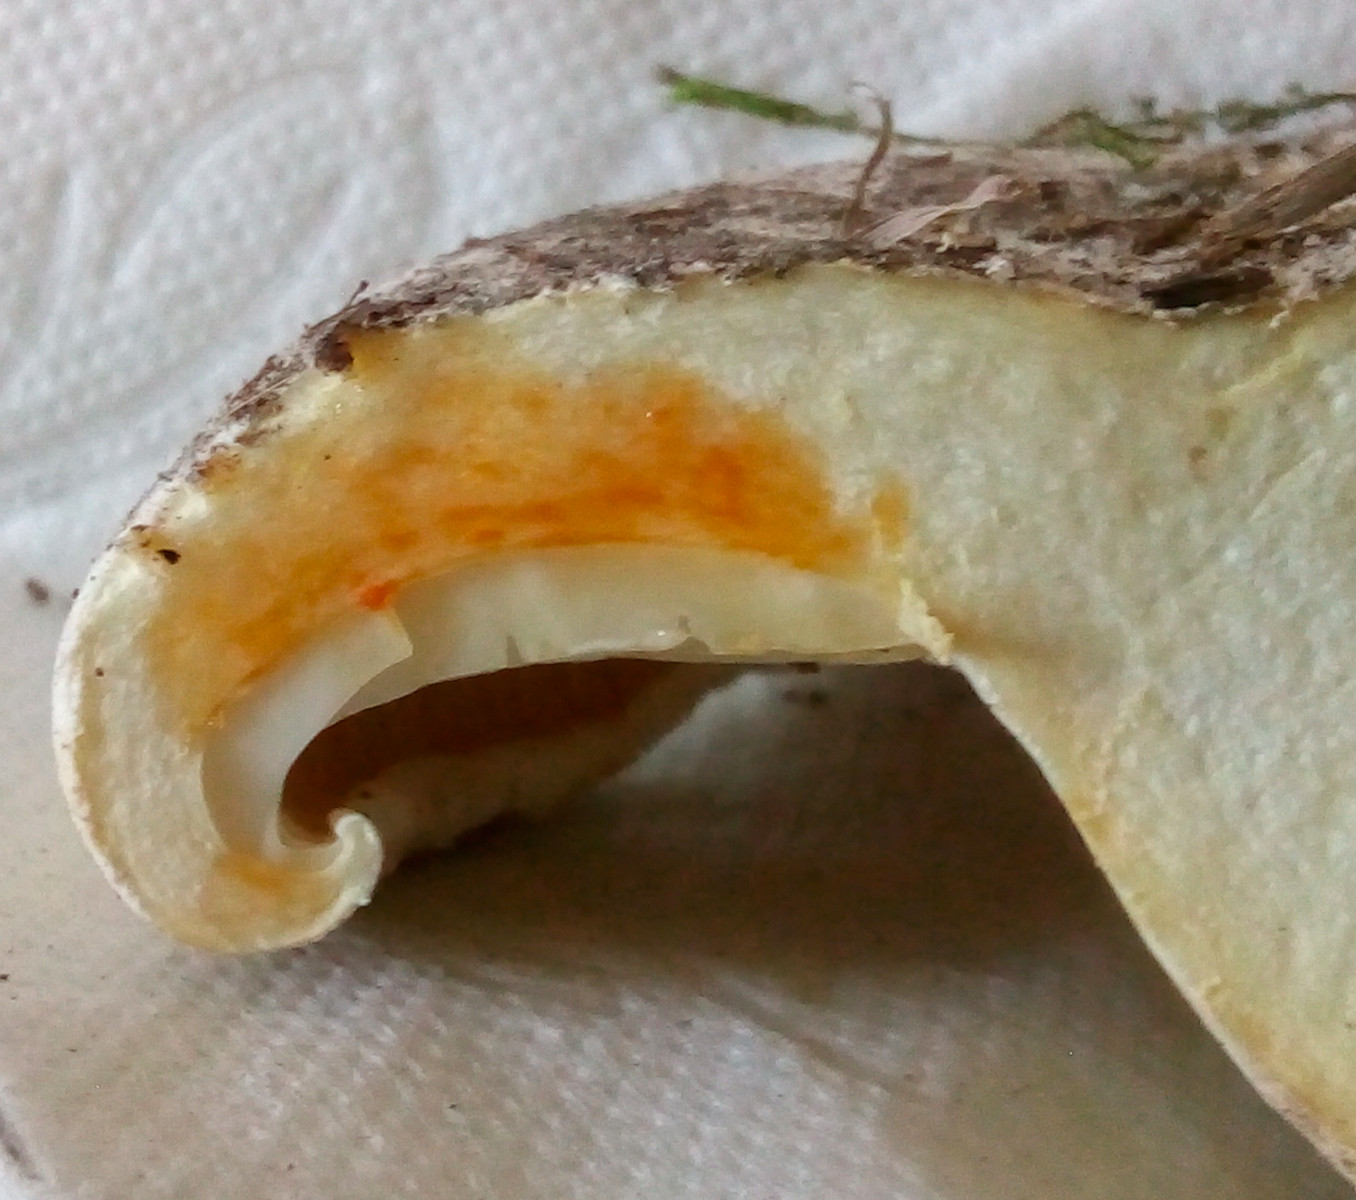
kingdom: Fungi
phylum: Basidiomycota
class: Agaricomycetes
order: Russulales
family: Russulaceae
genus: Lactifluus
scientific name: Lactifluus bertillonii
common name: blødfiltet mælkehat
